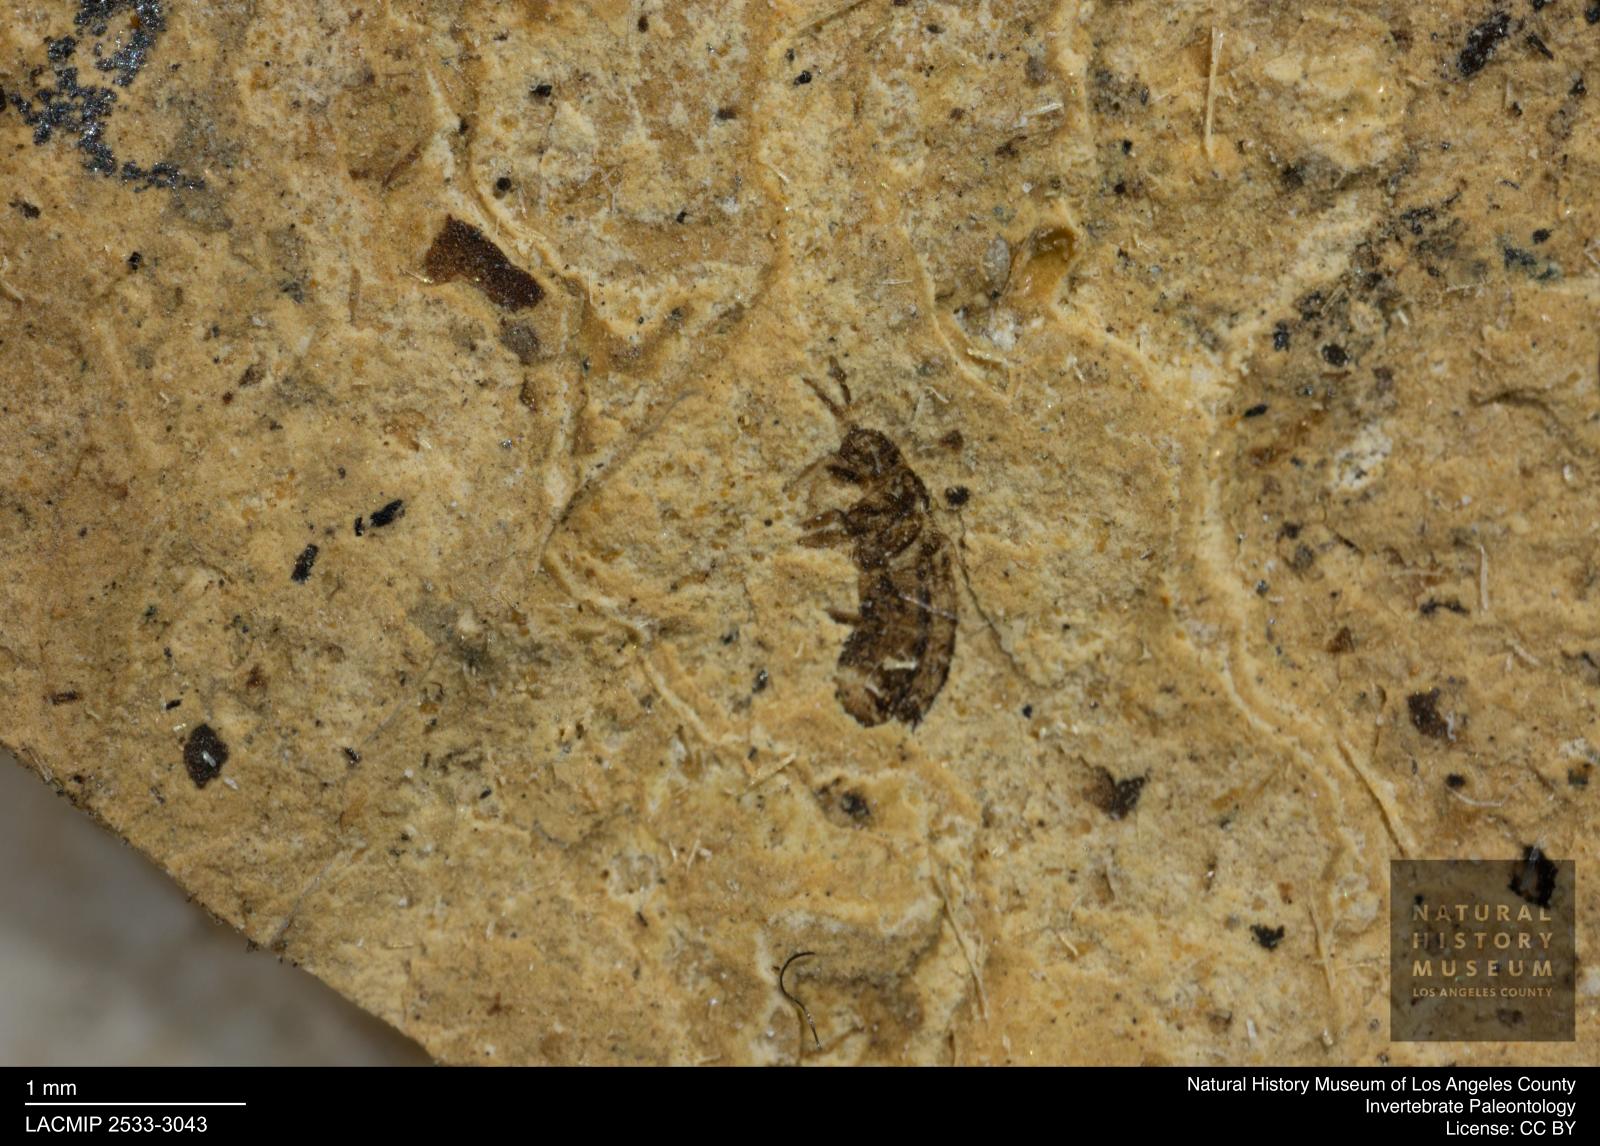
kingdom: Animalia
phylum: Arthropoda
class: Insecta
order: Thysanoptera
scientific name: Thysanoptera
